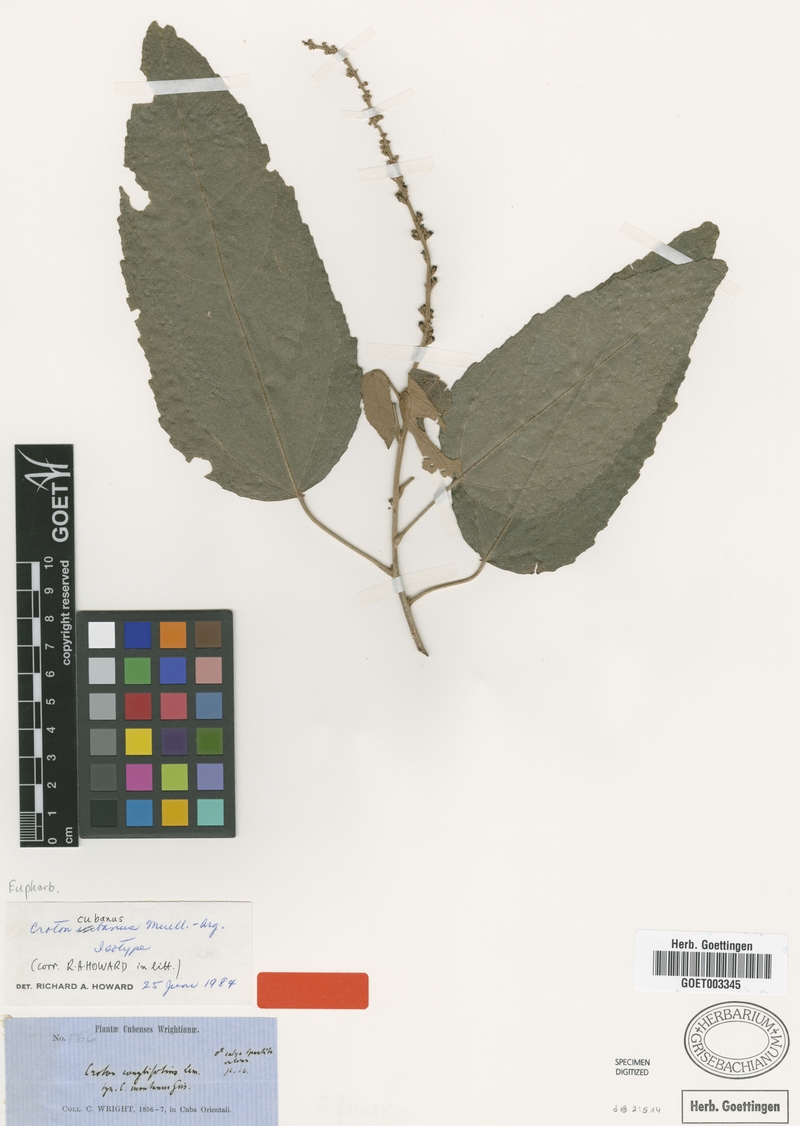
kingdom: Plantae
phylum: Tracheophyta
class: Magnoliopsida
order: Malpighiales
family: Euphorbiaceae
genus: Croton
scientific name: Croton corylifolius
